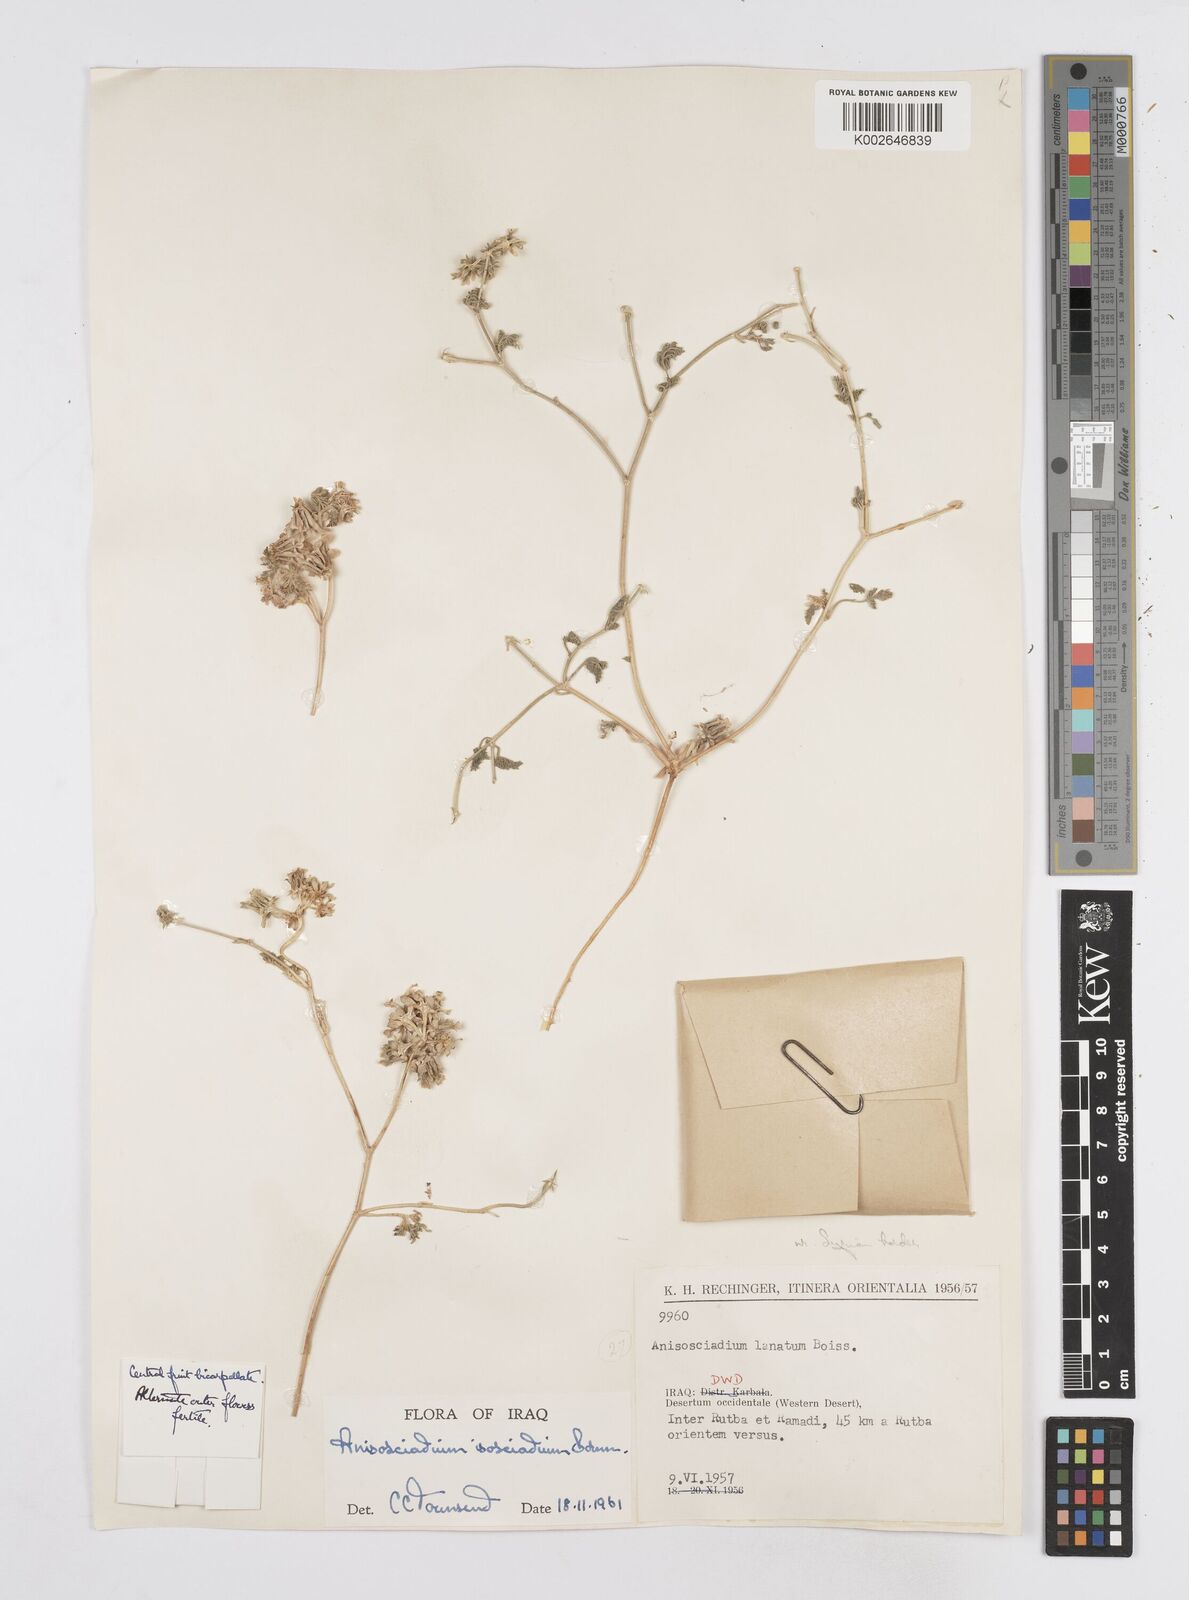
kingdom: Plantae
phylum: Tracheophyta
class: Magnoliopsida
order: Apiales
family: Apiaceae
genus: Anisosciadium
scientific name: Anisosciadium isosciadium
